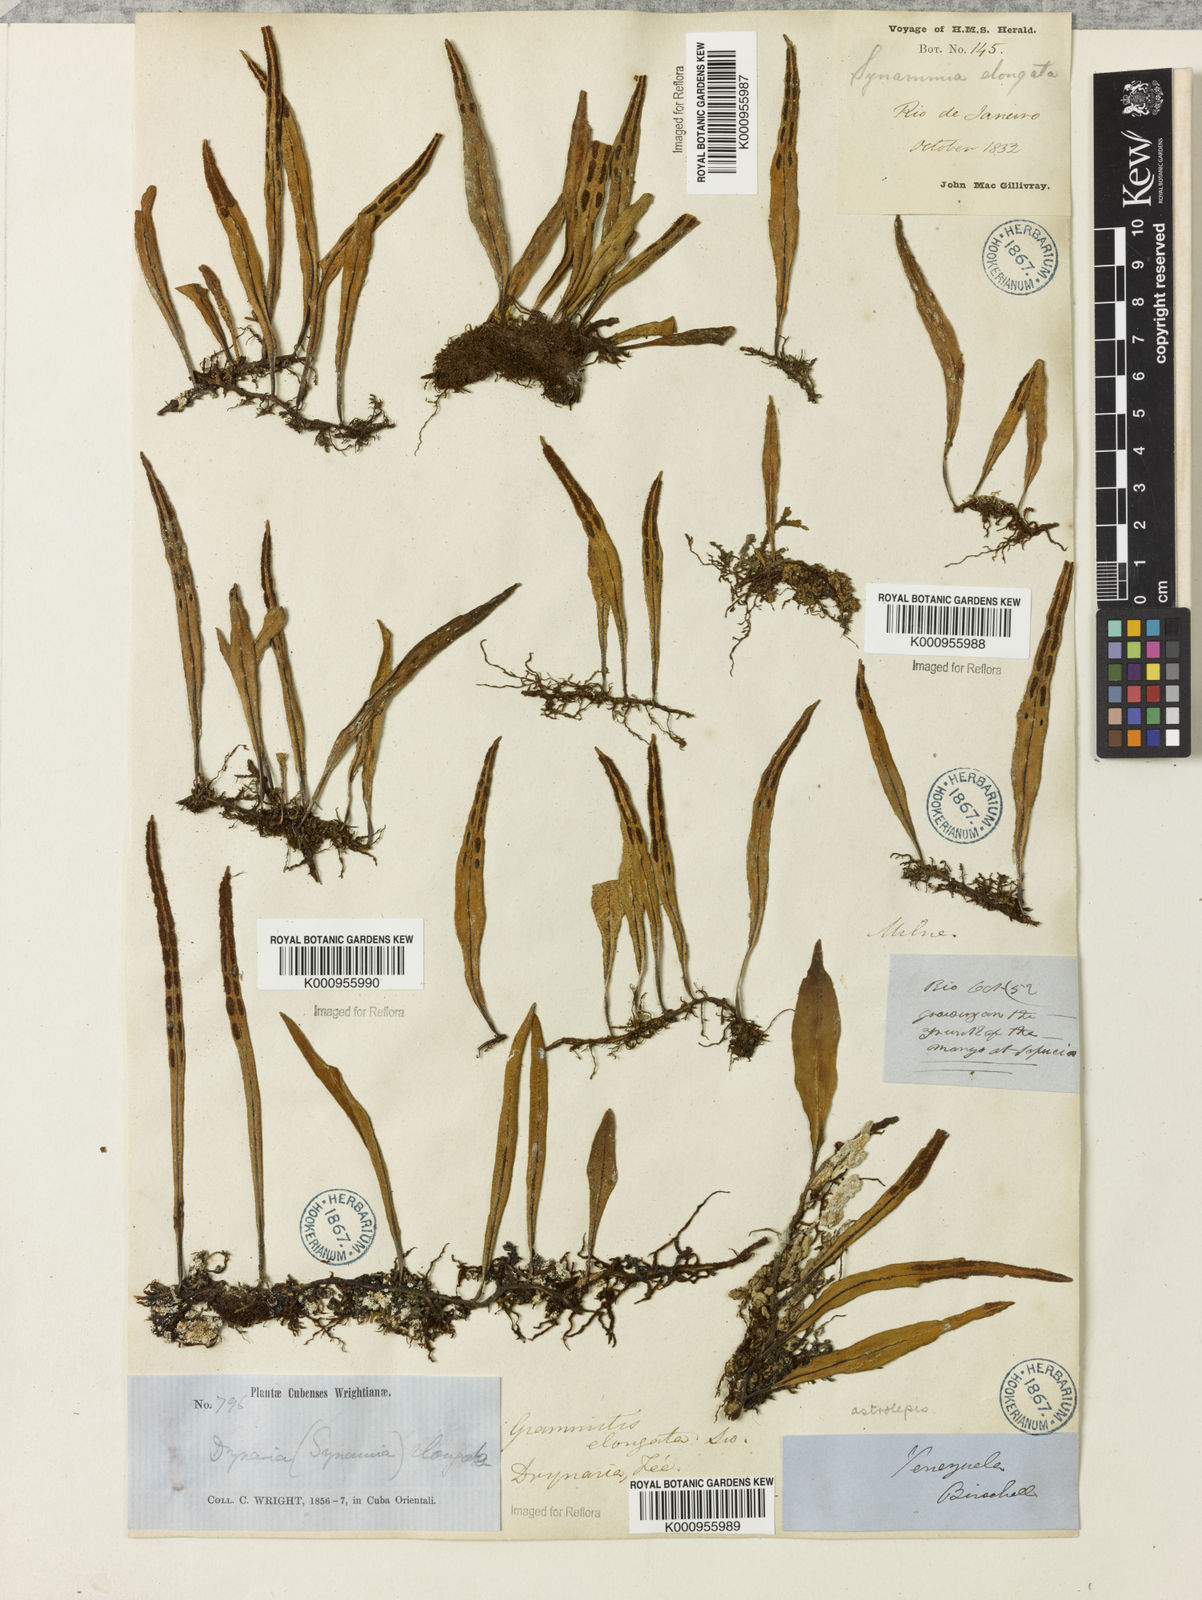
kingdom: Plantae
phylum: Tracheophyta
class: Polypodiopsida
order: Polypodiales
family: Polypodiaceae
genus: Pleopeltis
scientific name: Pleopeltis astrolepis
